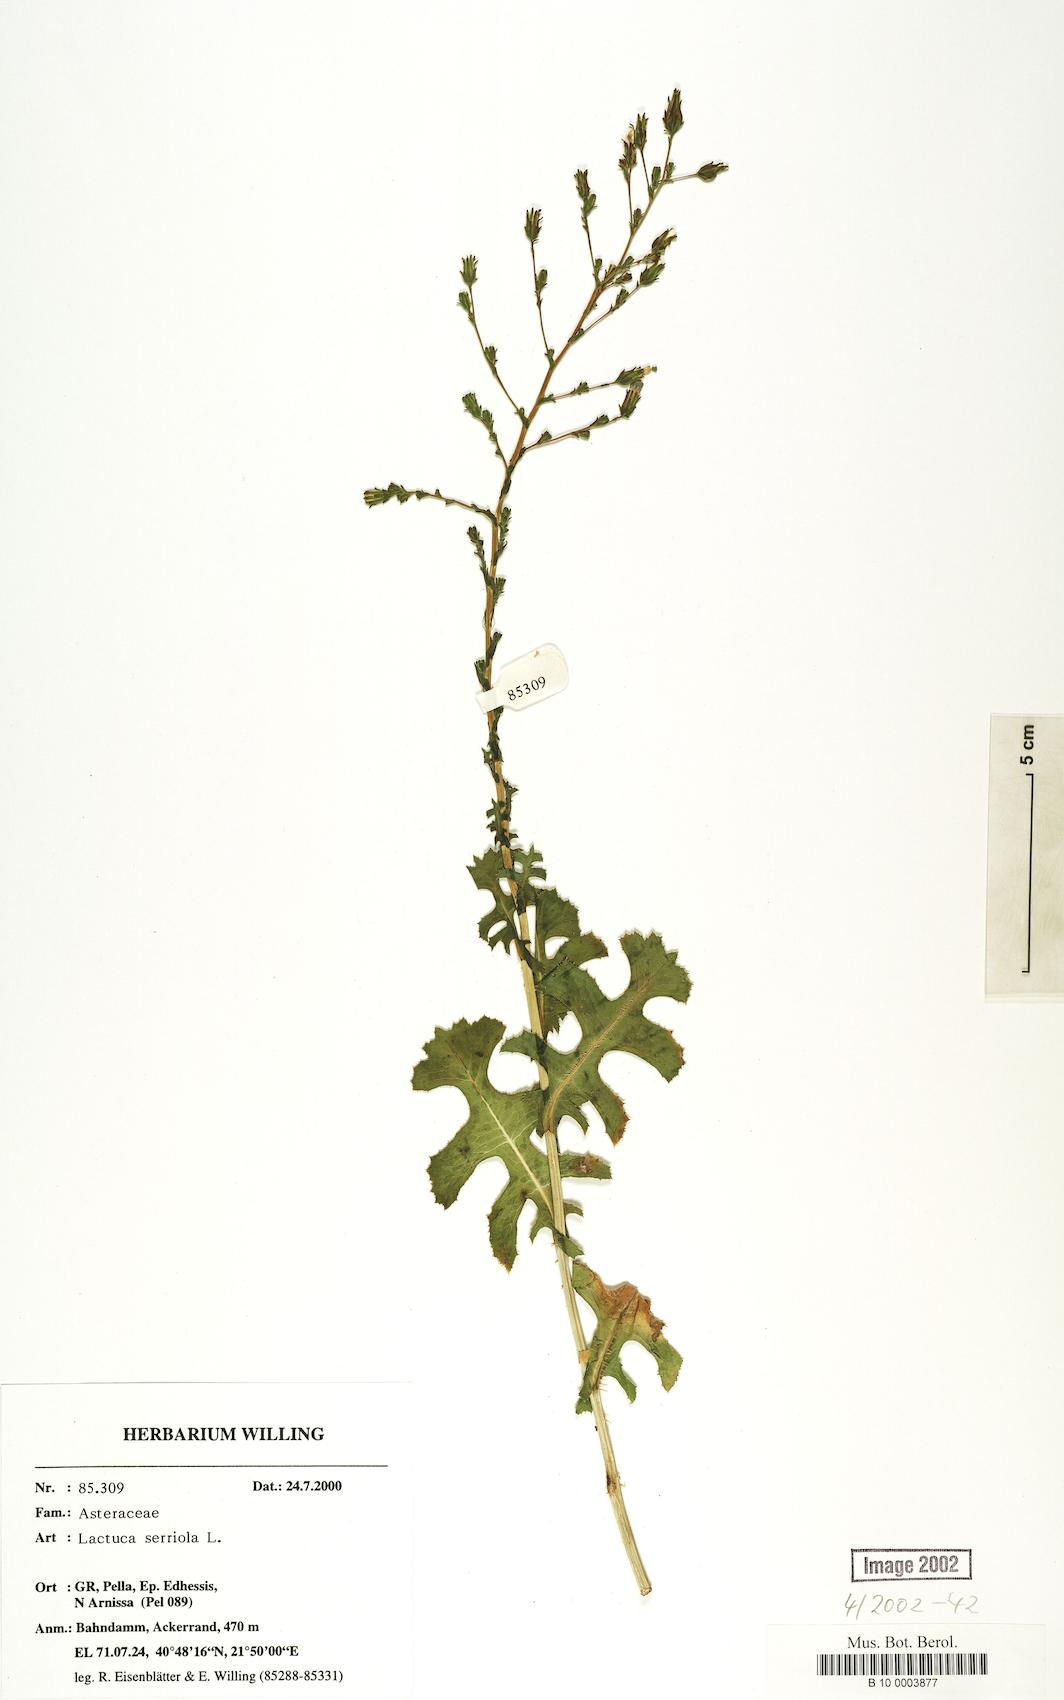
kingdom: Plantae
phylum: Tracheophyta
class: Magnoliopsida
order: Asterales
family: Asteraceae
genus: Lactuca
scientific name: Lactuca serriola
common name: Prickly lettuce
